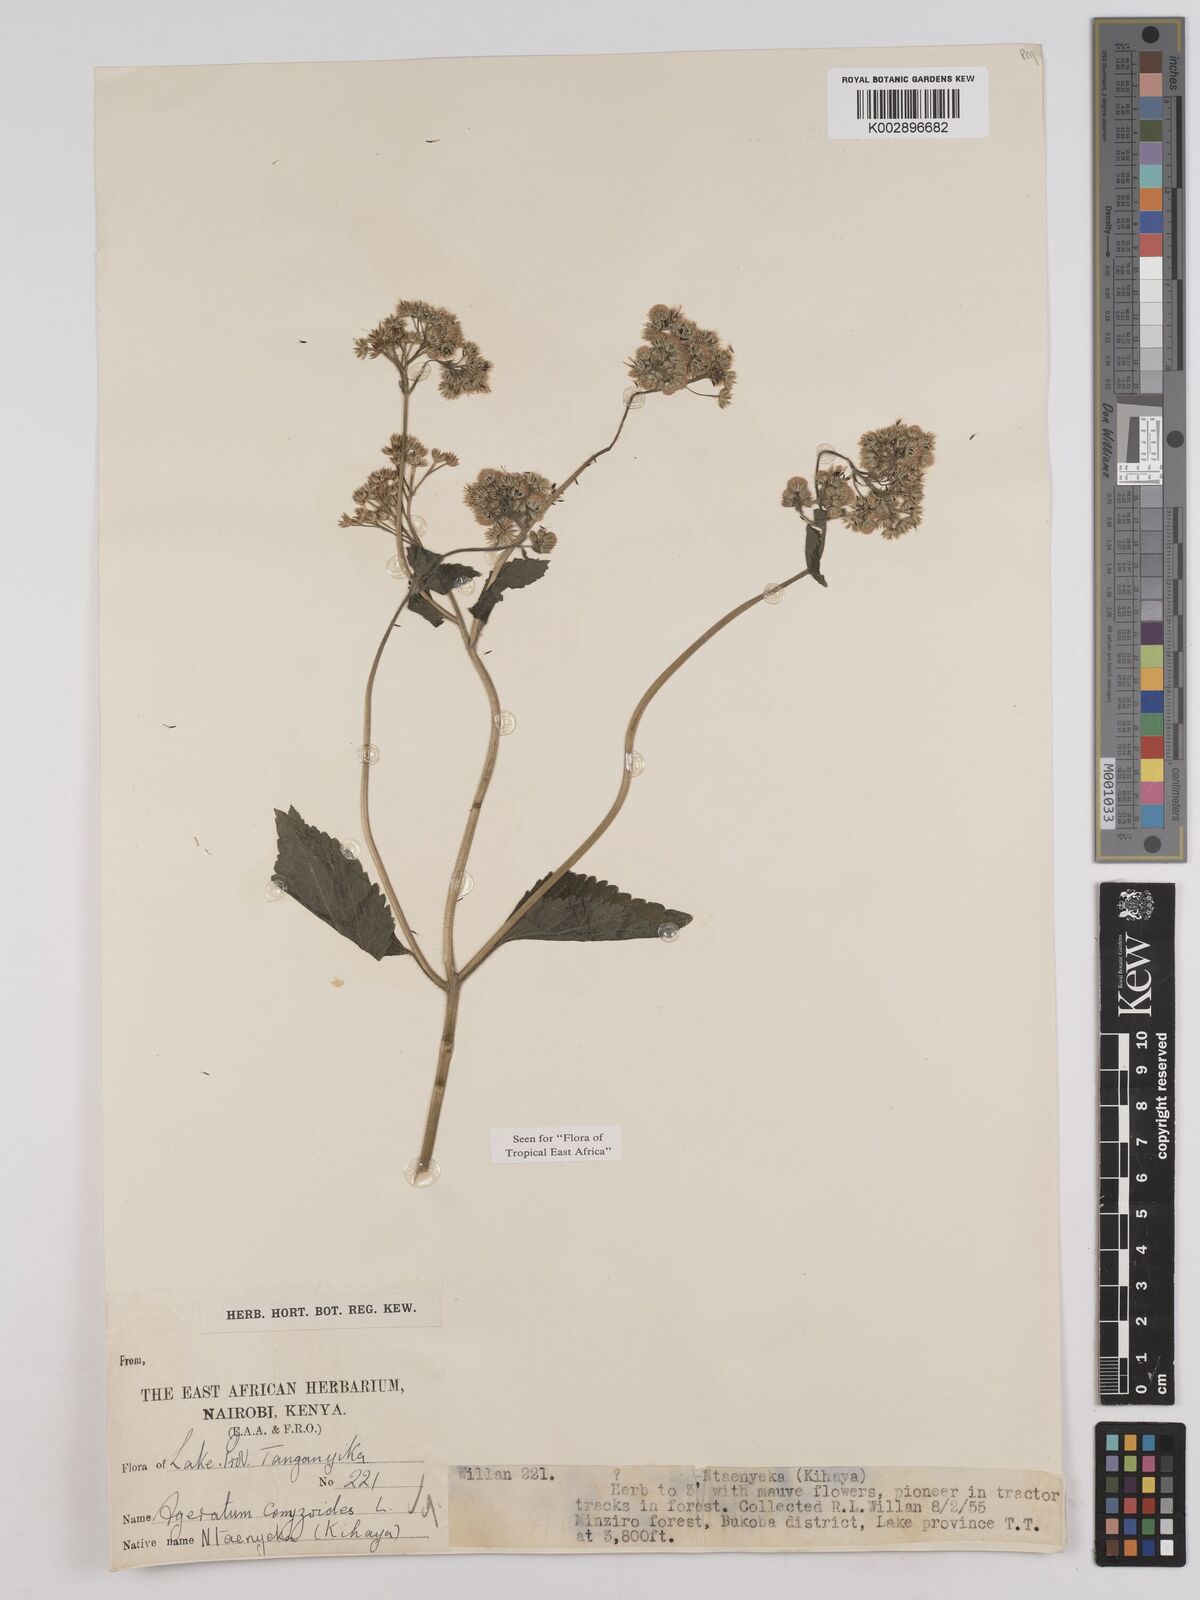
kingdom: Plantae
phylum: Tracheophyta
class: Magnoliopsida
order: Asterales
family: Asteraceae
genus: Ageratum
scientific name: Ageratum conyzoides
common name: Tropical whiteweed
